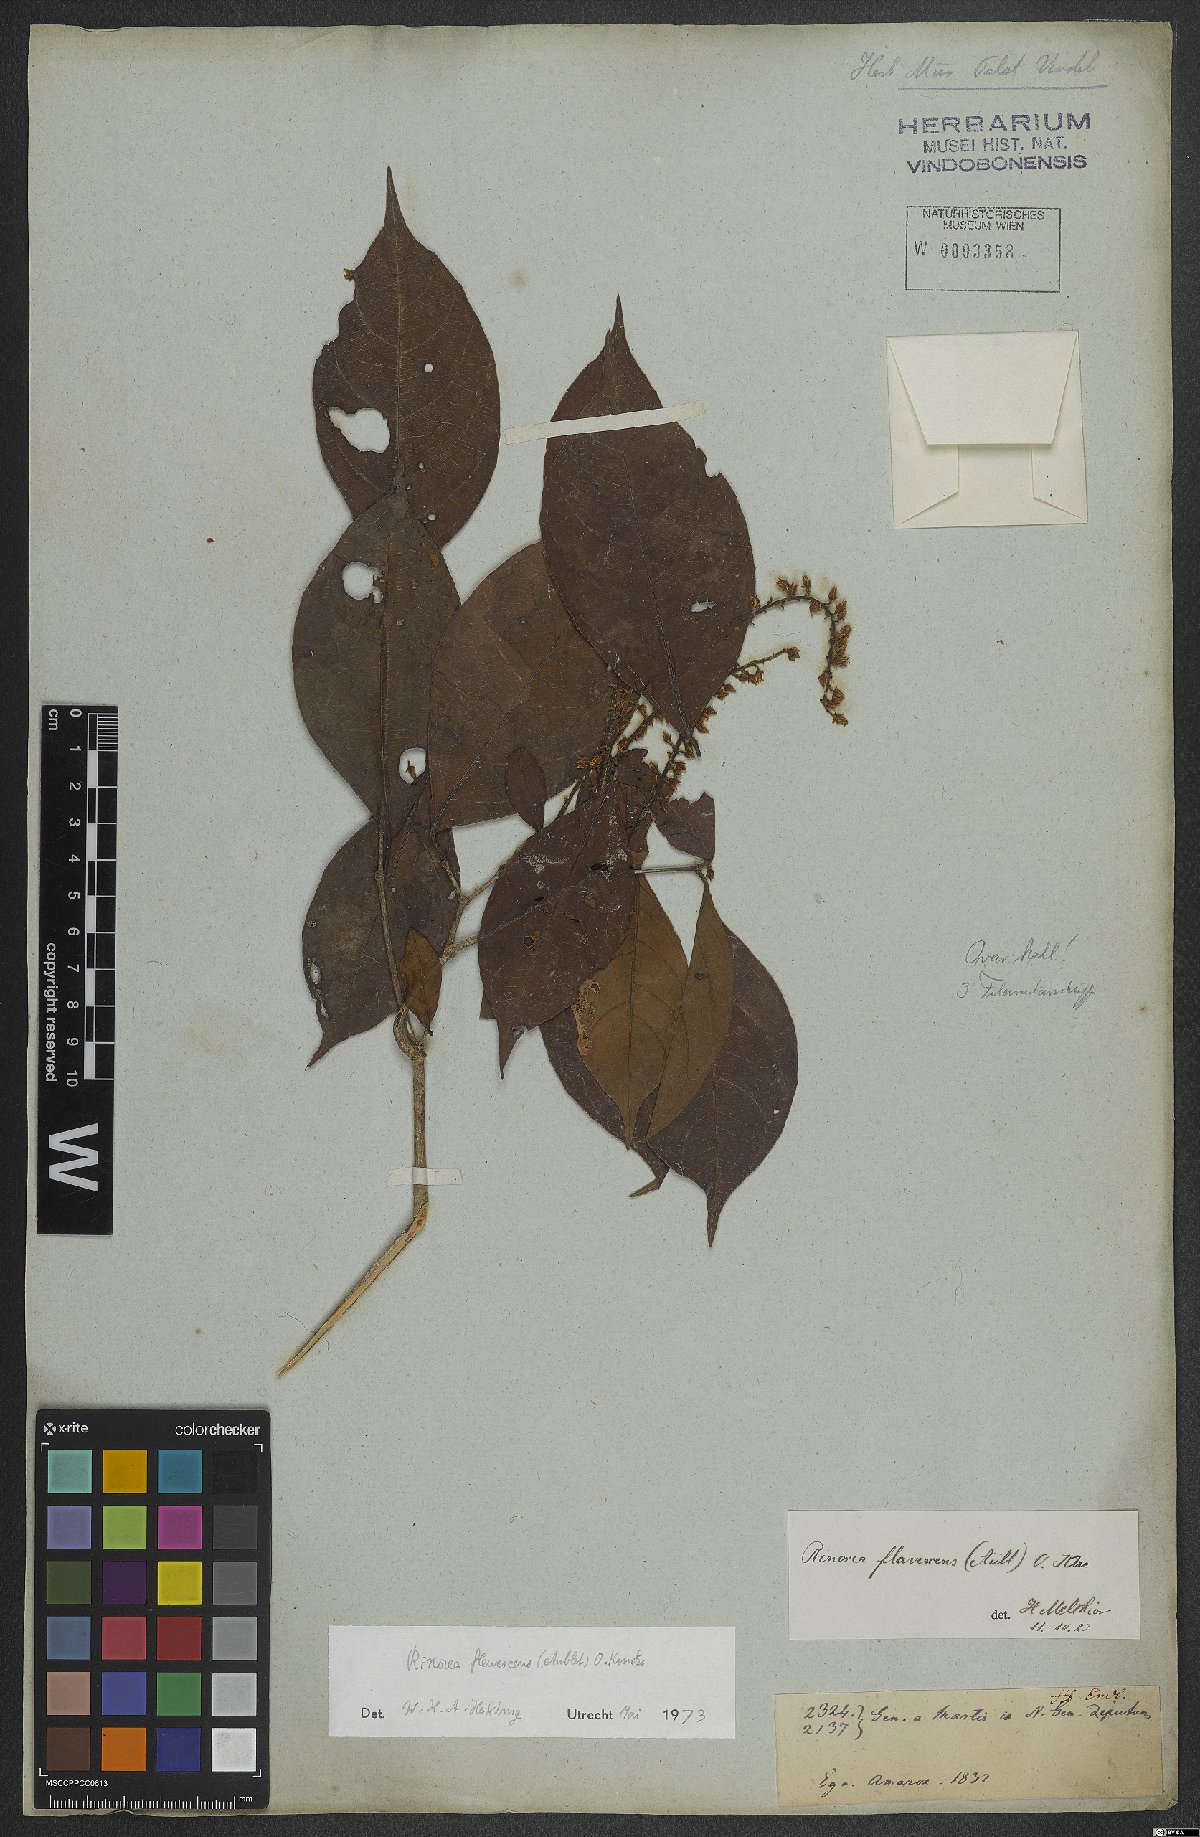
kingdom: Plantae
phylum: Tracheophyta
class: Magnoliopsida
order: Malpighiales
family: Violaceae
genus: Rinorea
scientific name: Rinorea flavescens
